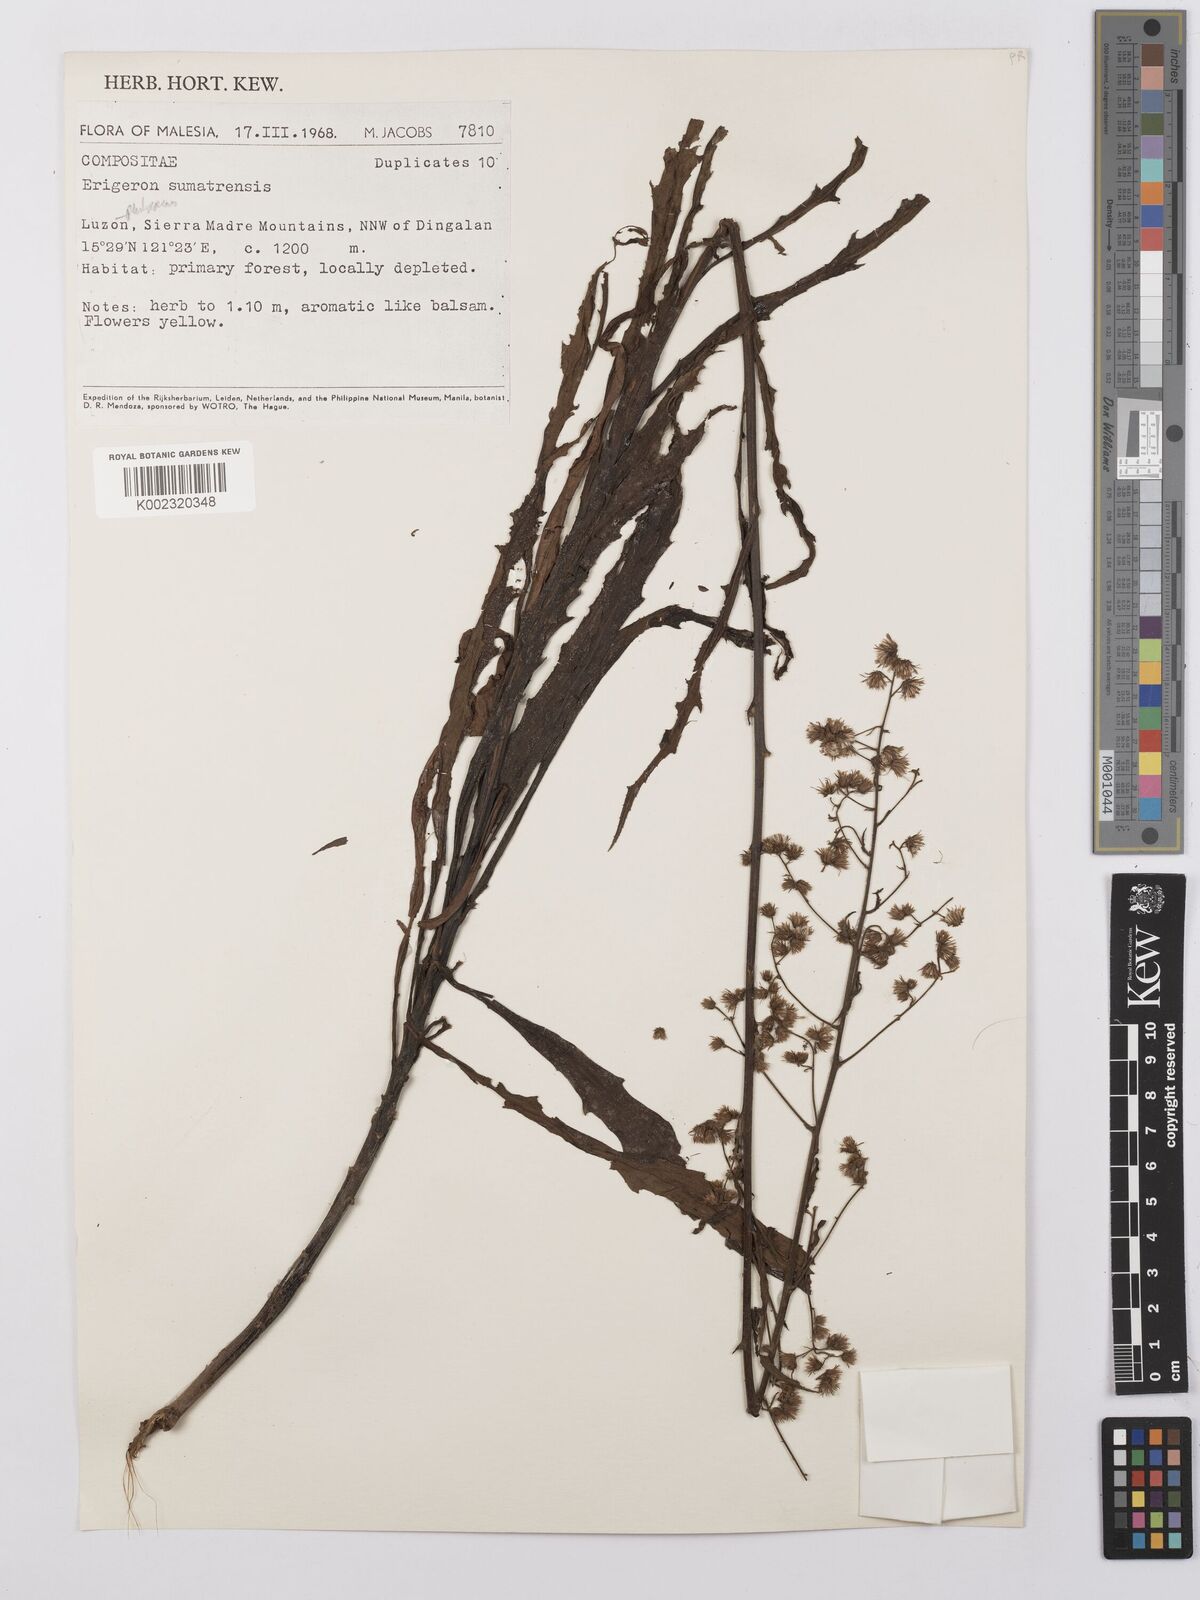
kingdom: Plantae
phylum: Tracheophyta
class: Magnoliopsida
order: Asterales
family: Asteraceae
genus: Erigeron
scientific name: Erigeron sumatrensis
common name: Daisy
